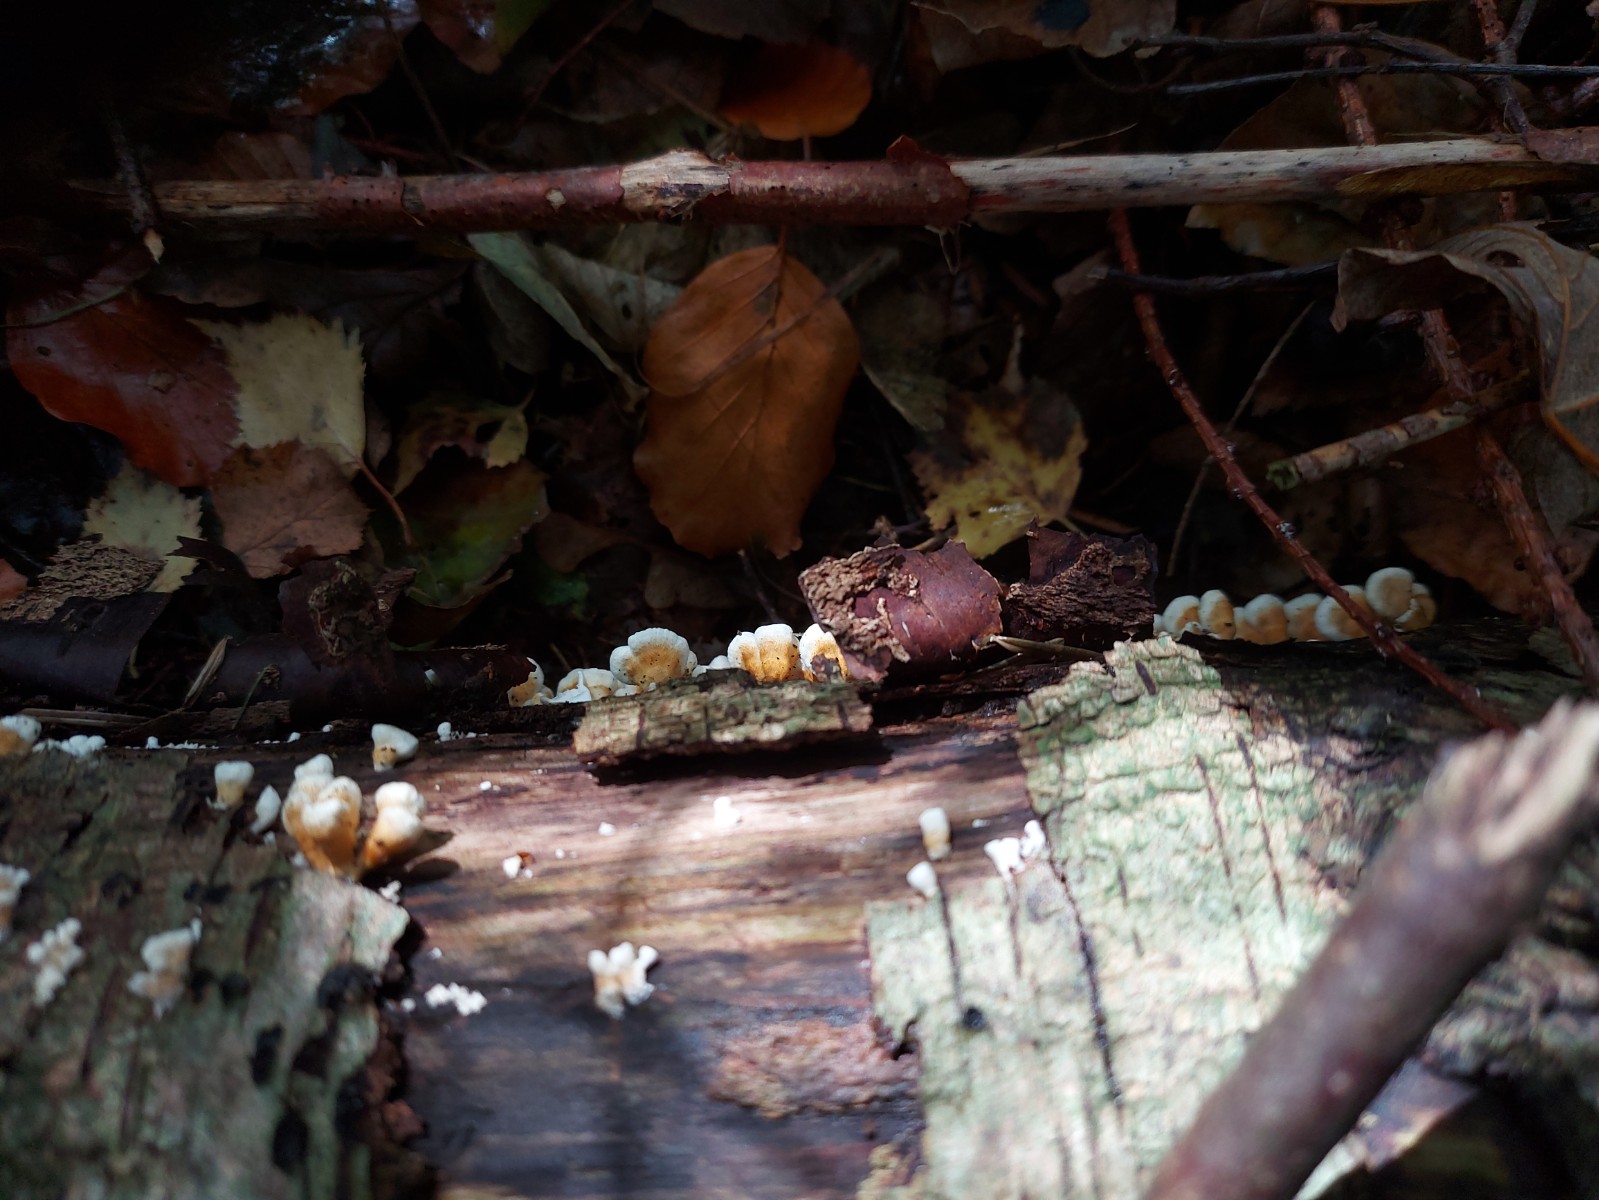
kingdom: Fungi
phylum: Basidiomycota
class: Agaricomycetes
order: Amylocorticiales
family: Amylocorticiaceae
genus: Plicaturopsis
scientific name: Plicaturopsis crispa
